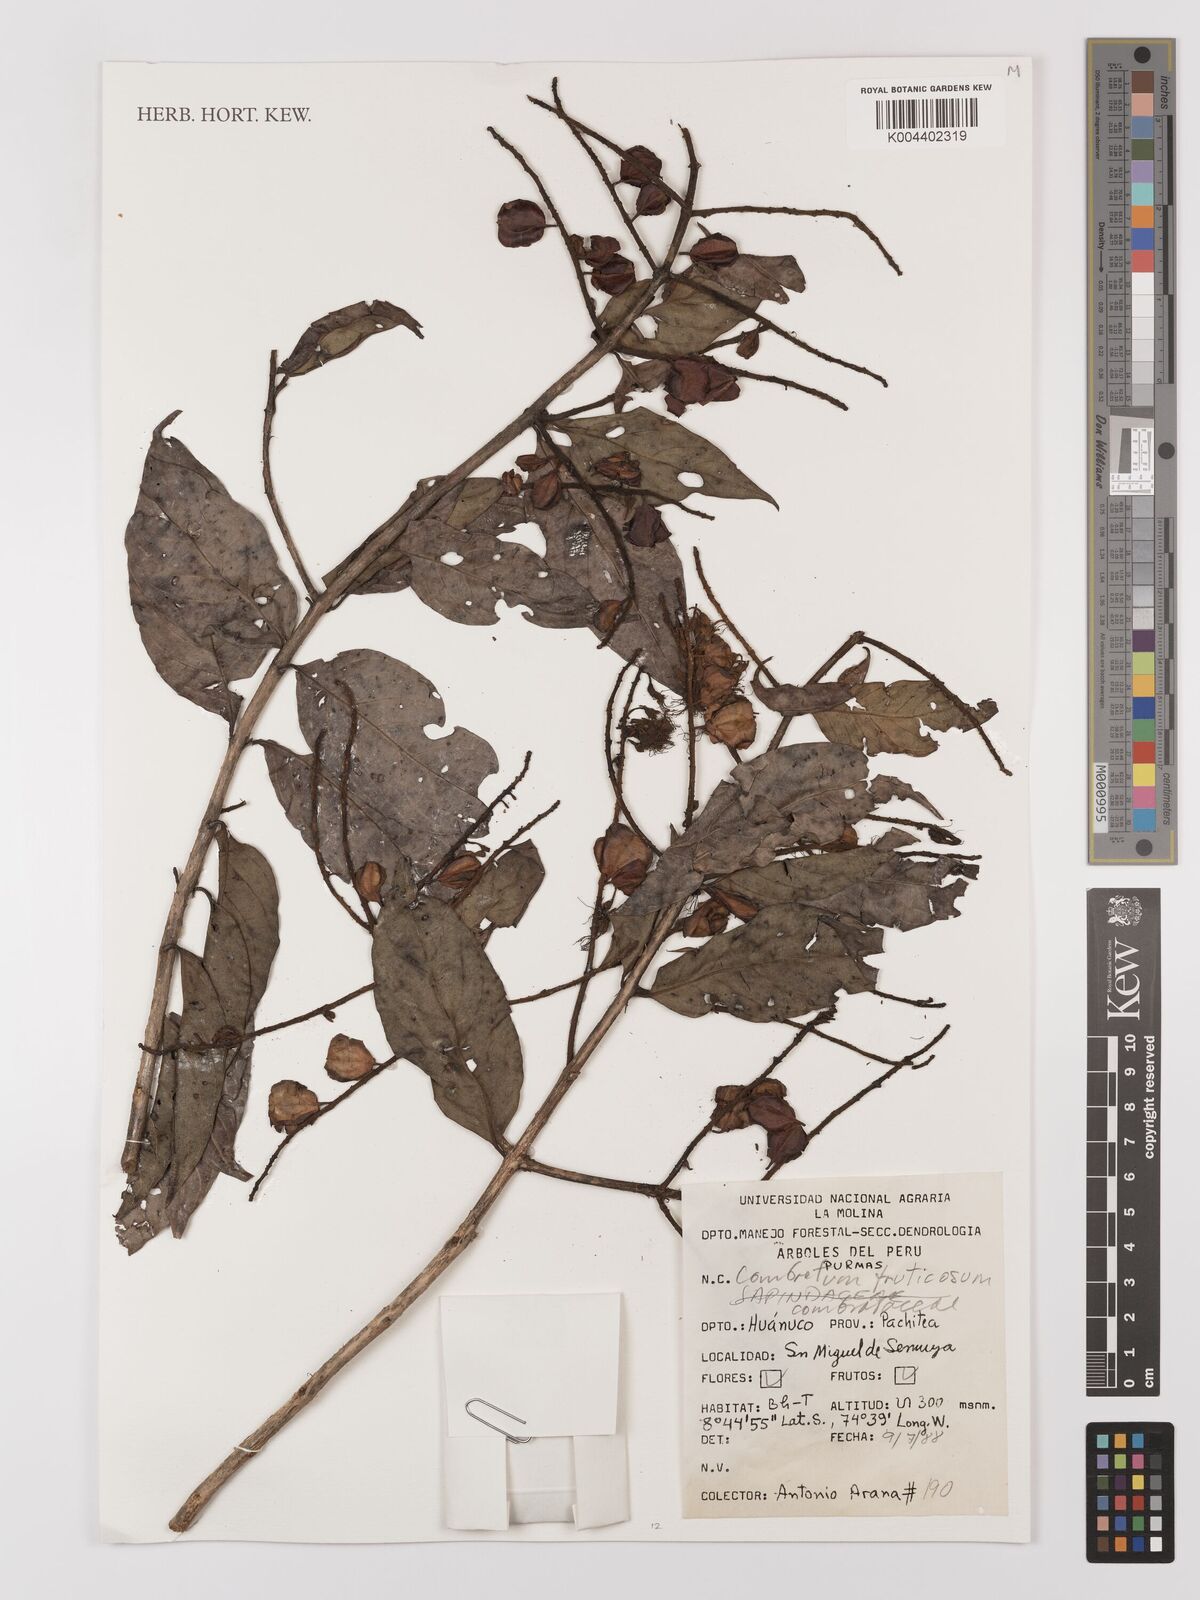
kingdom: Plantae
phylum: Tracheophyta
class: Magnoliopsida
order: Myrtales
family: Combretaceae
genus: Combretum
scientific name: Combretum fruticosum
